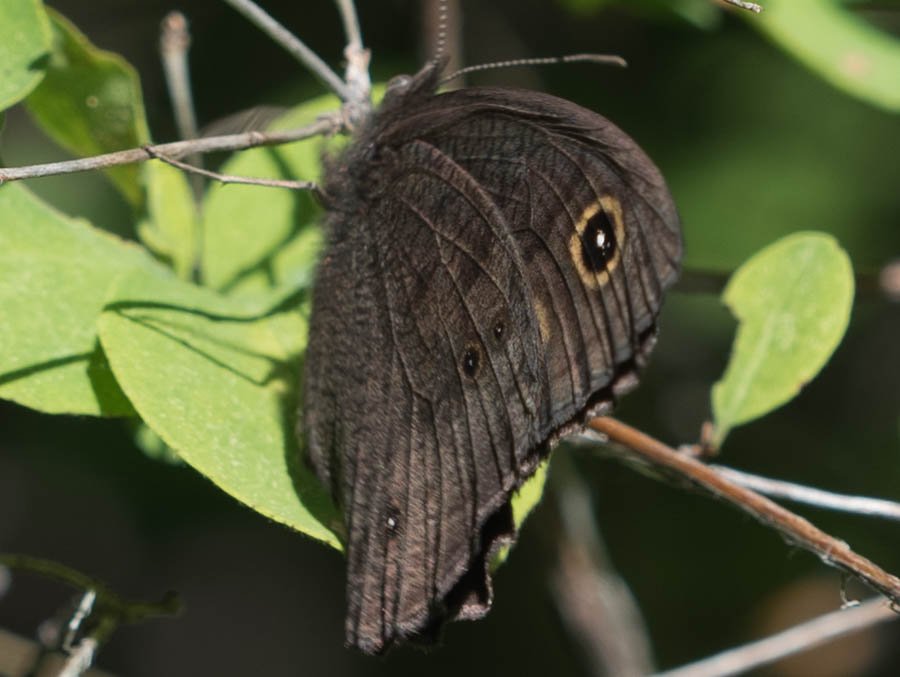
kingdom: Animalia
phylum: Arthropoda
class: Insecta
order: Lepidoptera
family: Nymphalidae
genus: Cercyonis
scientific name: Cercyonis pegala
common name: Common Wood-Nymph
